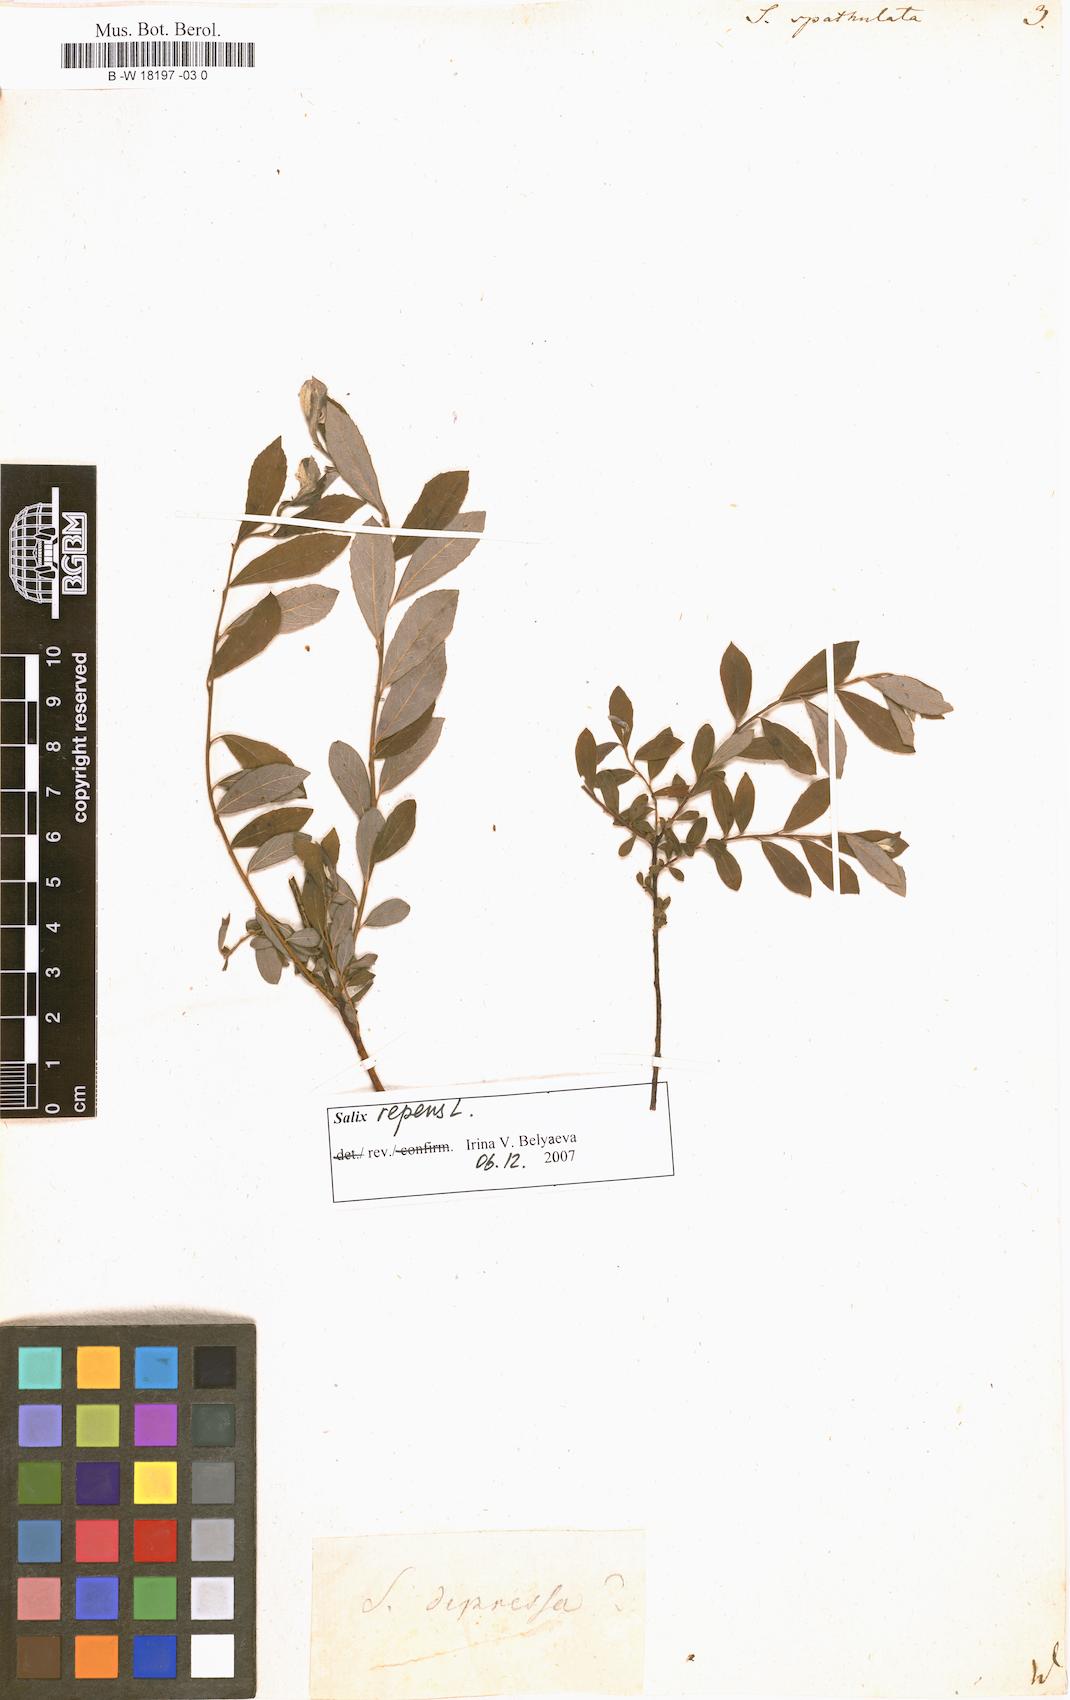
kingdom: Plantae
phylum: Tracheophyta
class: Magnoliopsida
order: Malpighiales
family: Salicaceae
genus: Salix
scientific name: Salix
